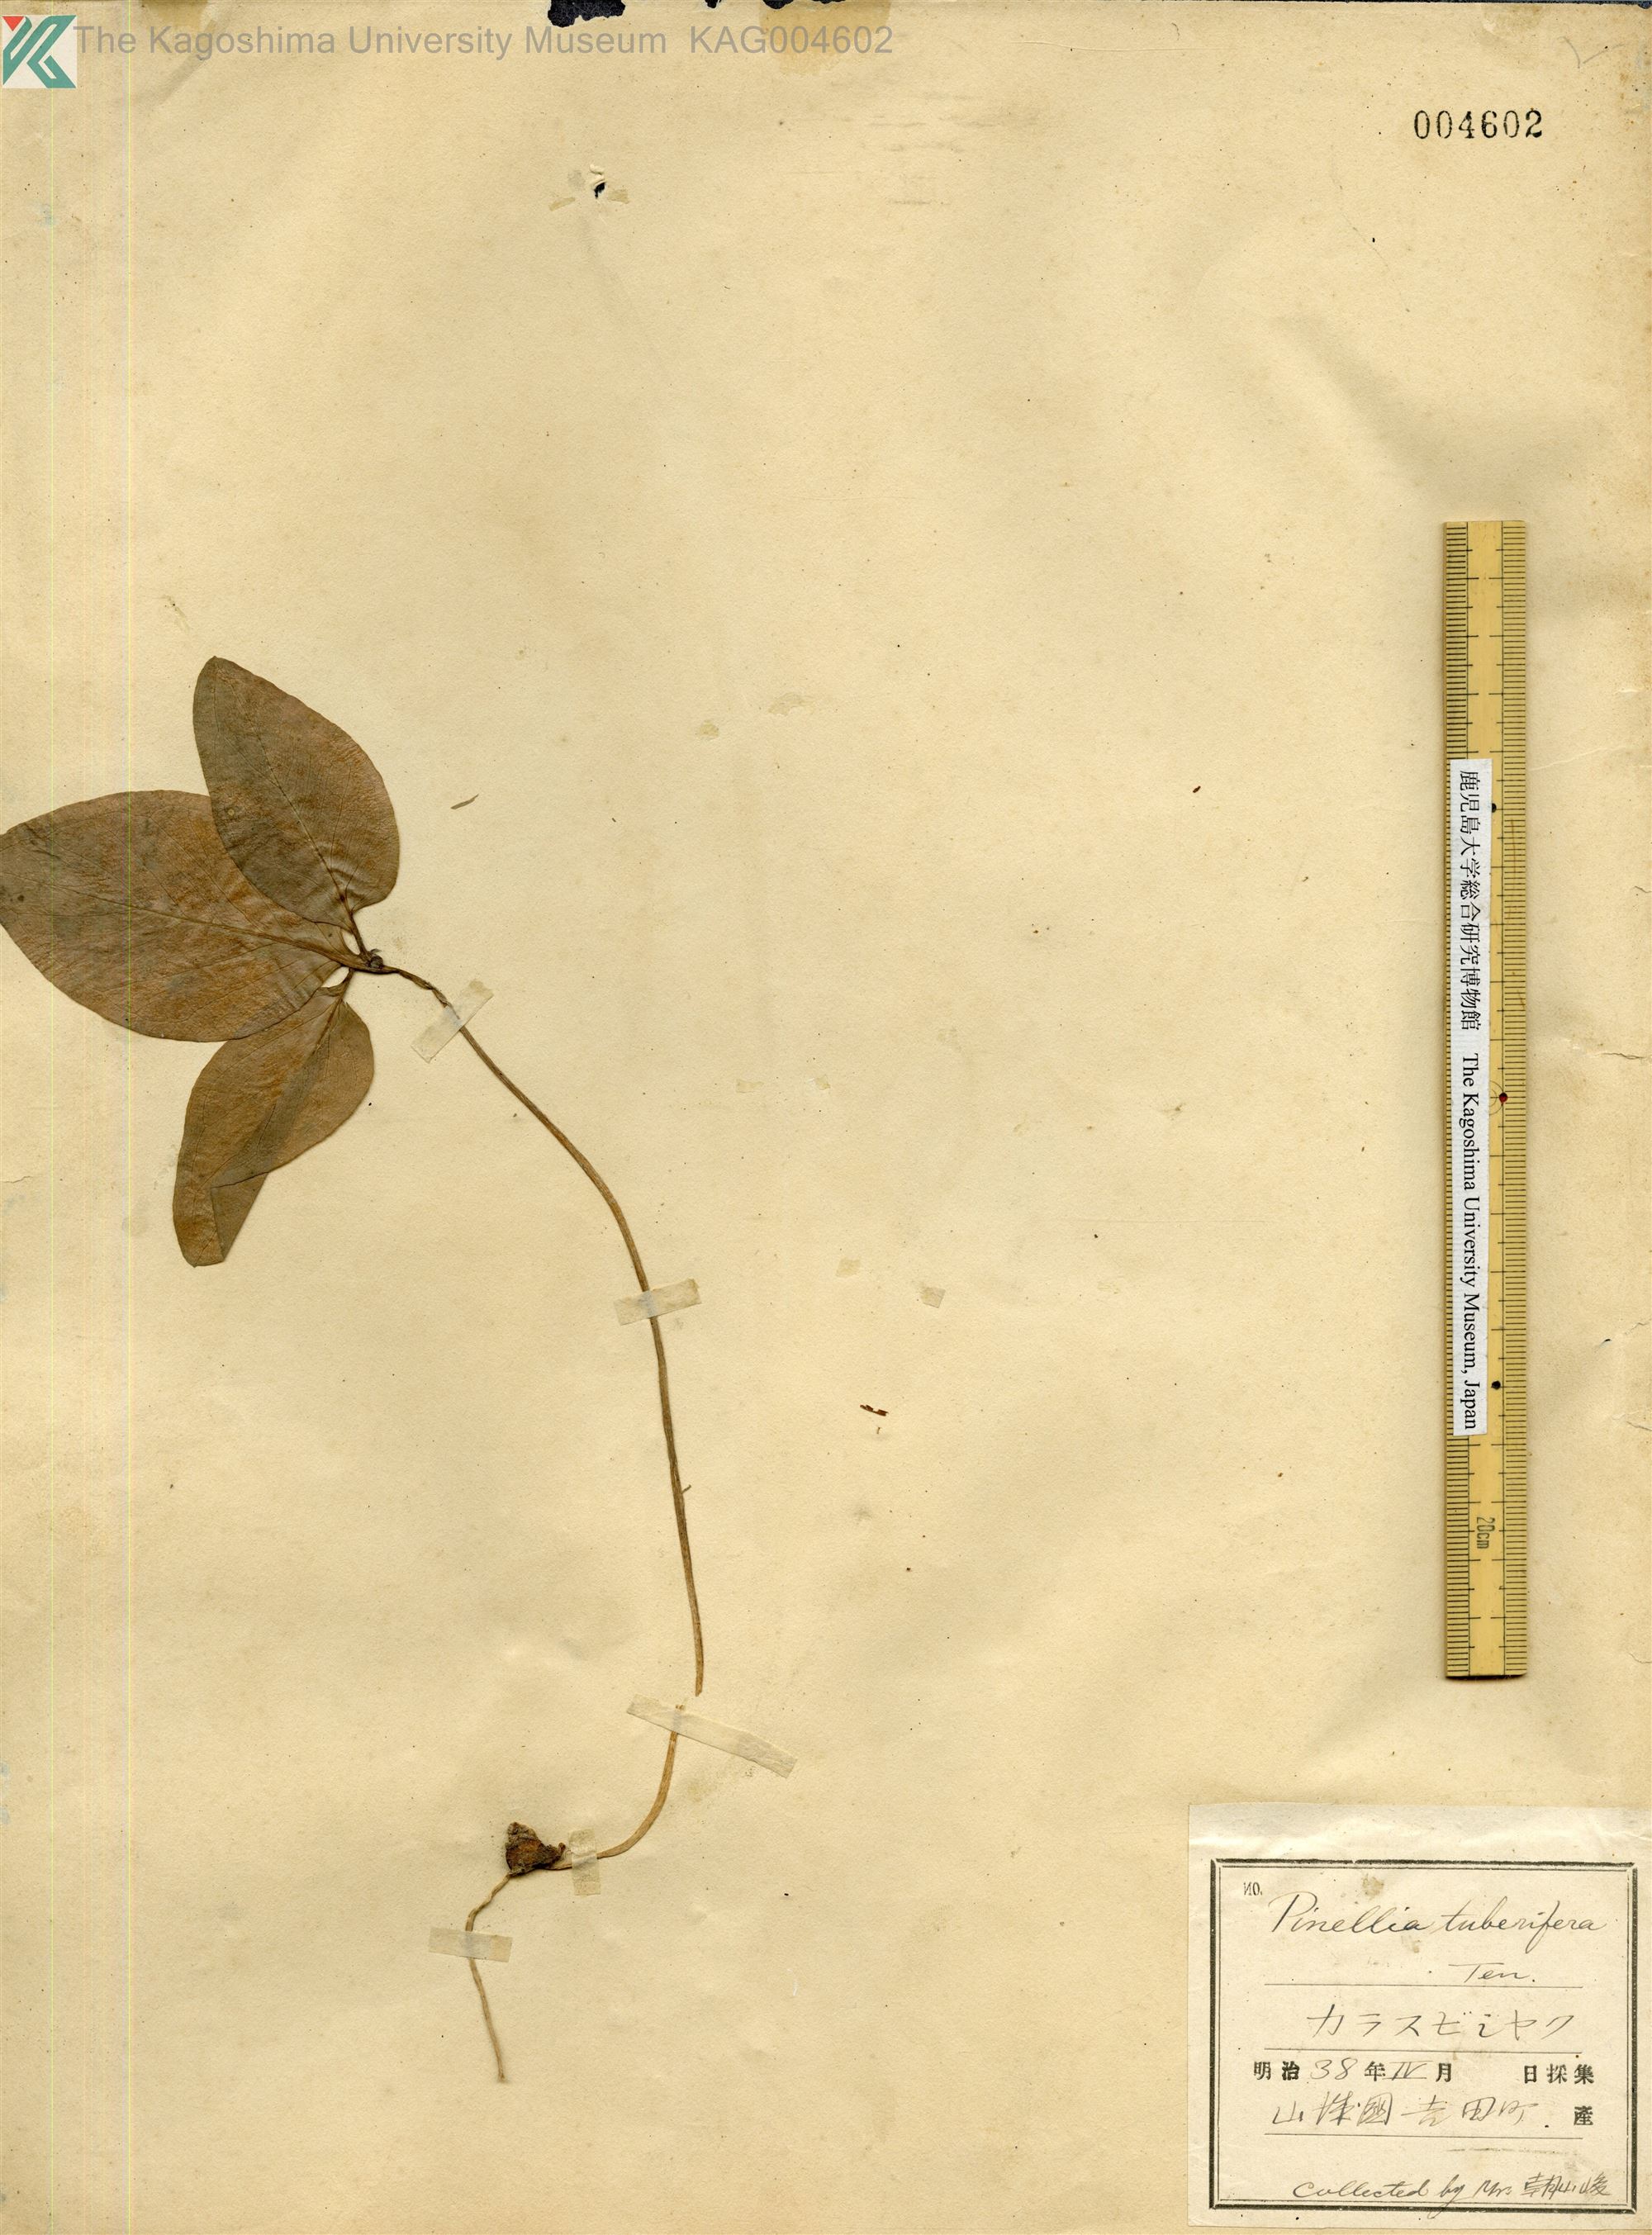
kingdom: Plantae
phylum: Tracheophyta
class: Liliopsida
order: Alismatales
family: Araceae
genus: Pinellia
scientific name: Pinellia ternata
